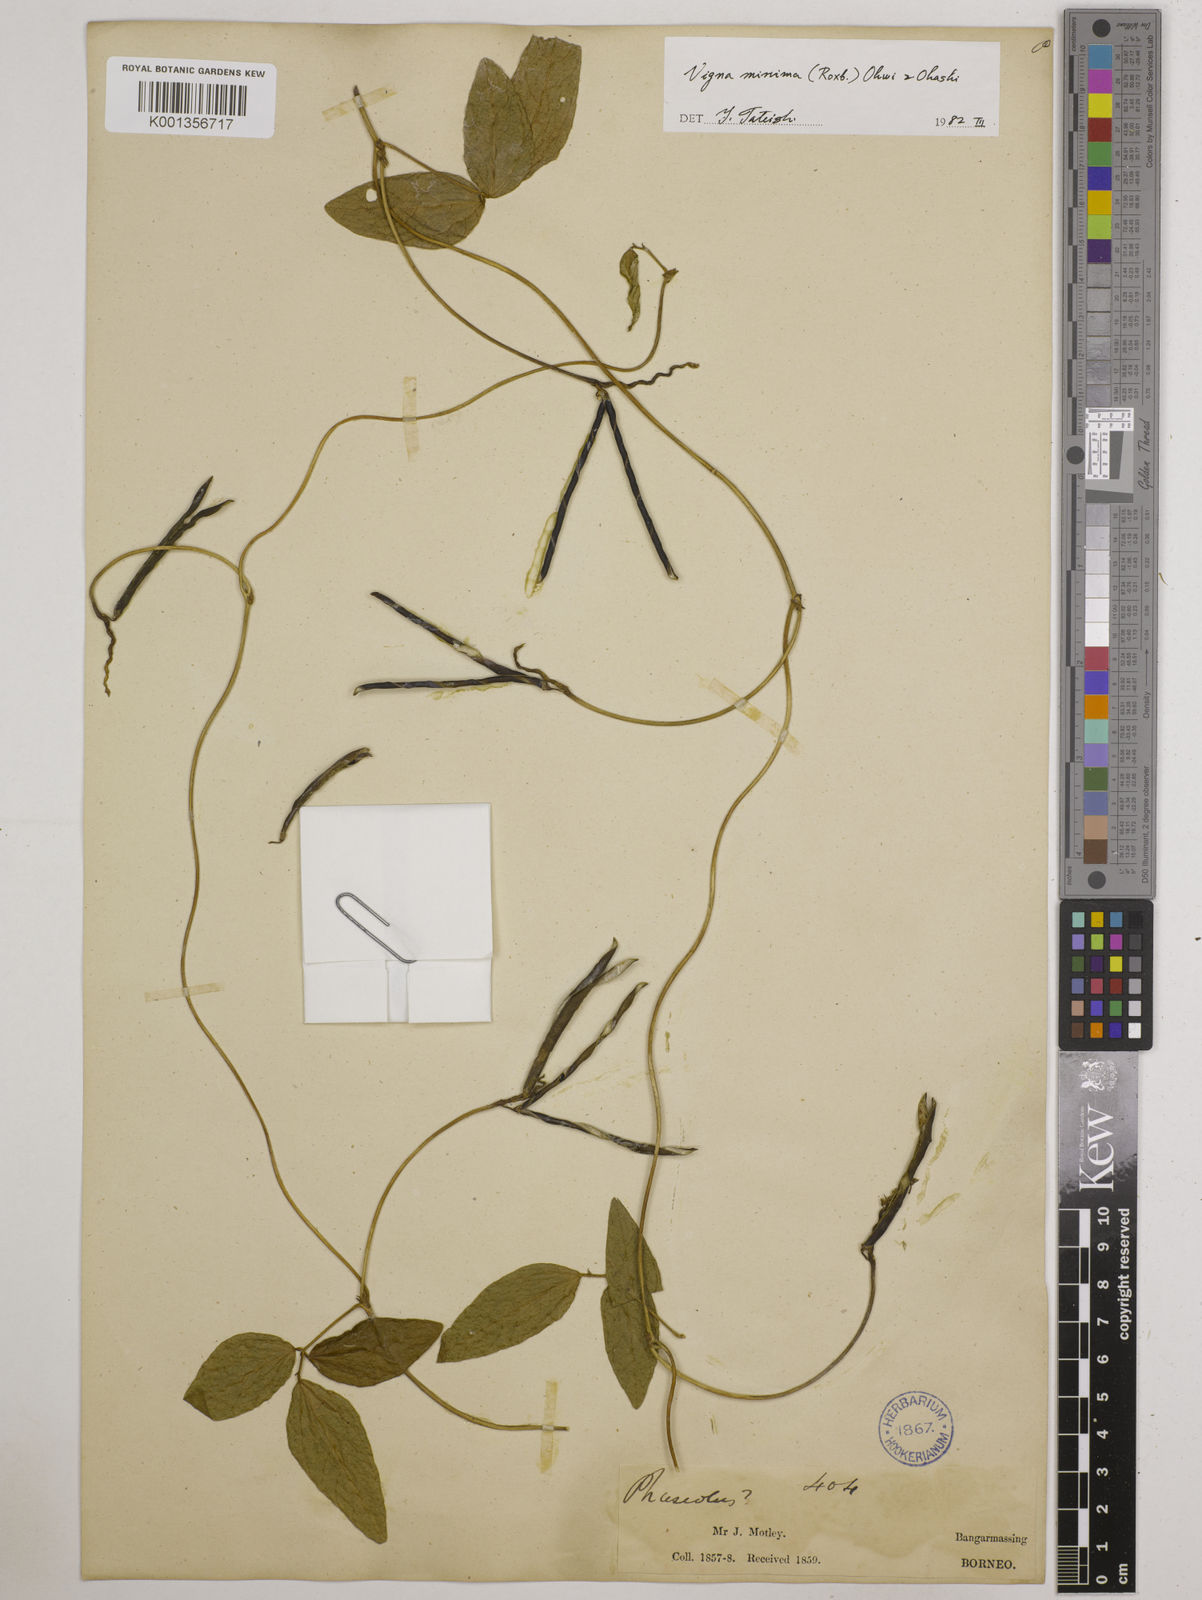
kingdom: Plantae
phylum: Tracheophyta
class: Magnoliopsida
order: Fabales
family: Fabaceae
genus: Vigna
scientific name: Vigna minima
